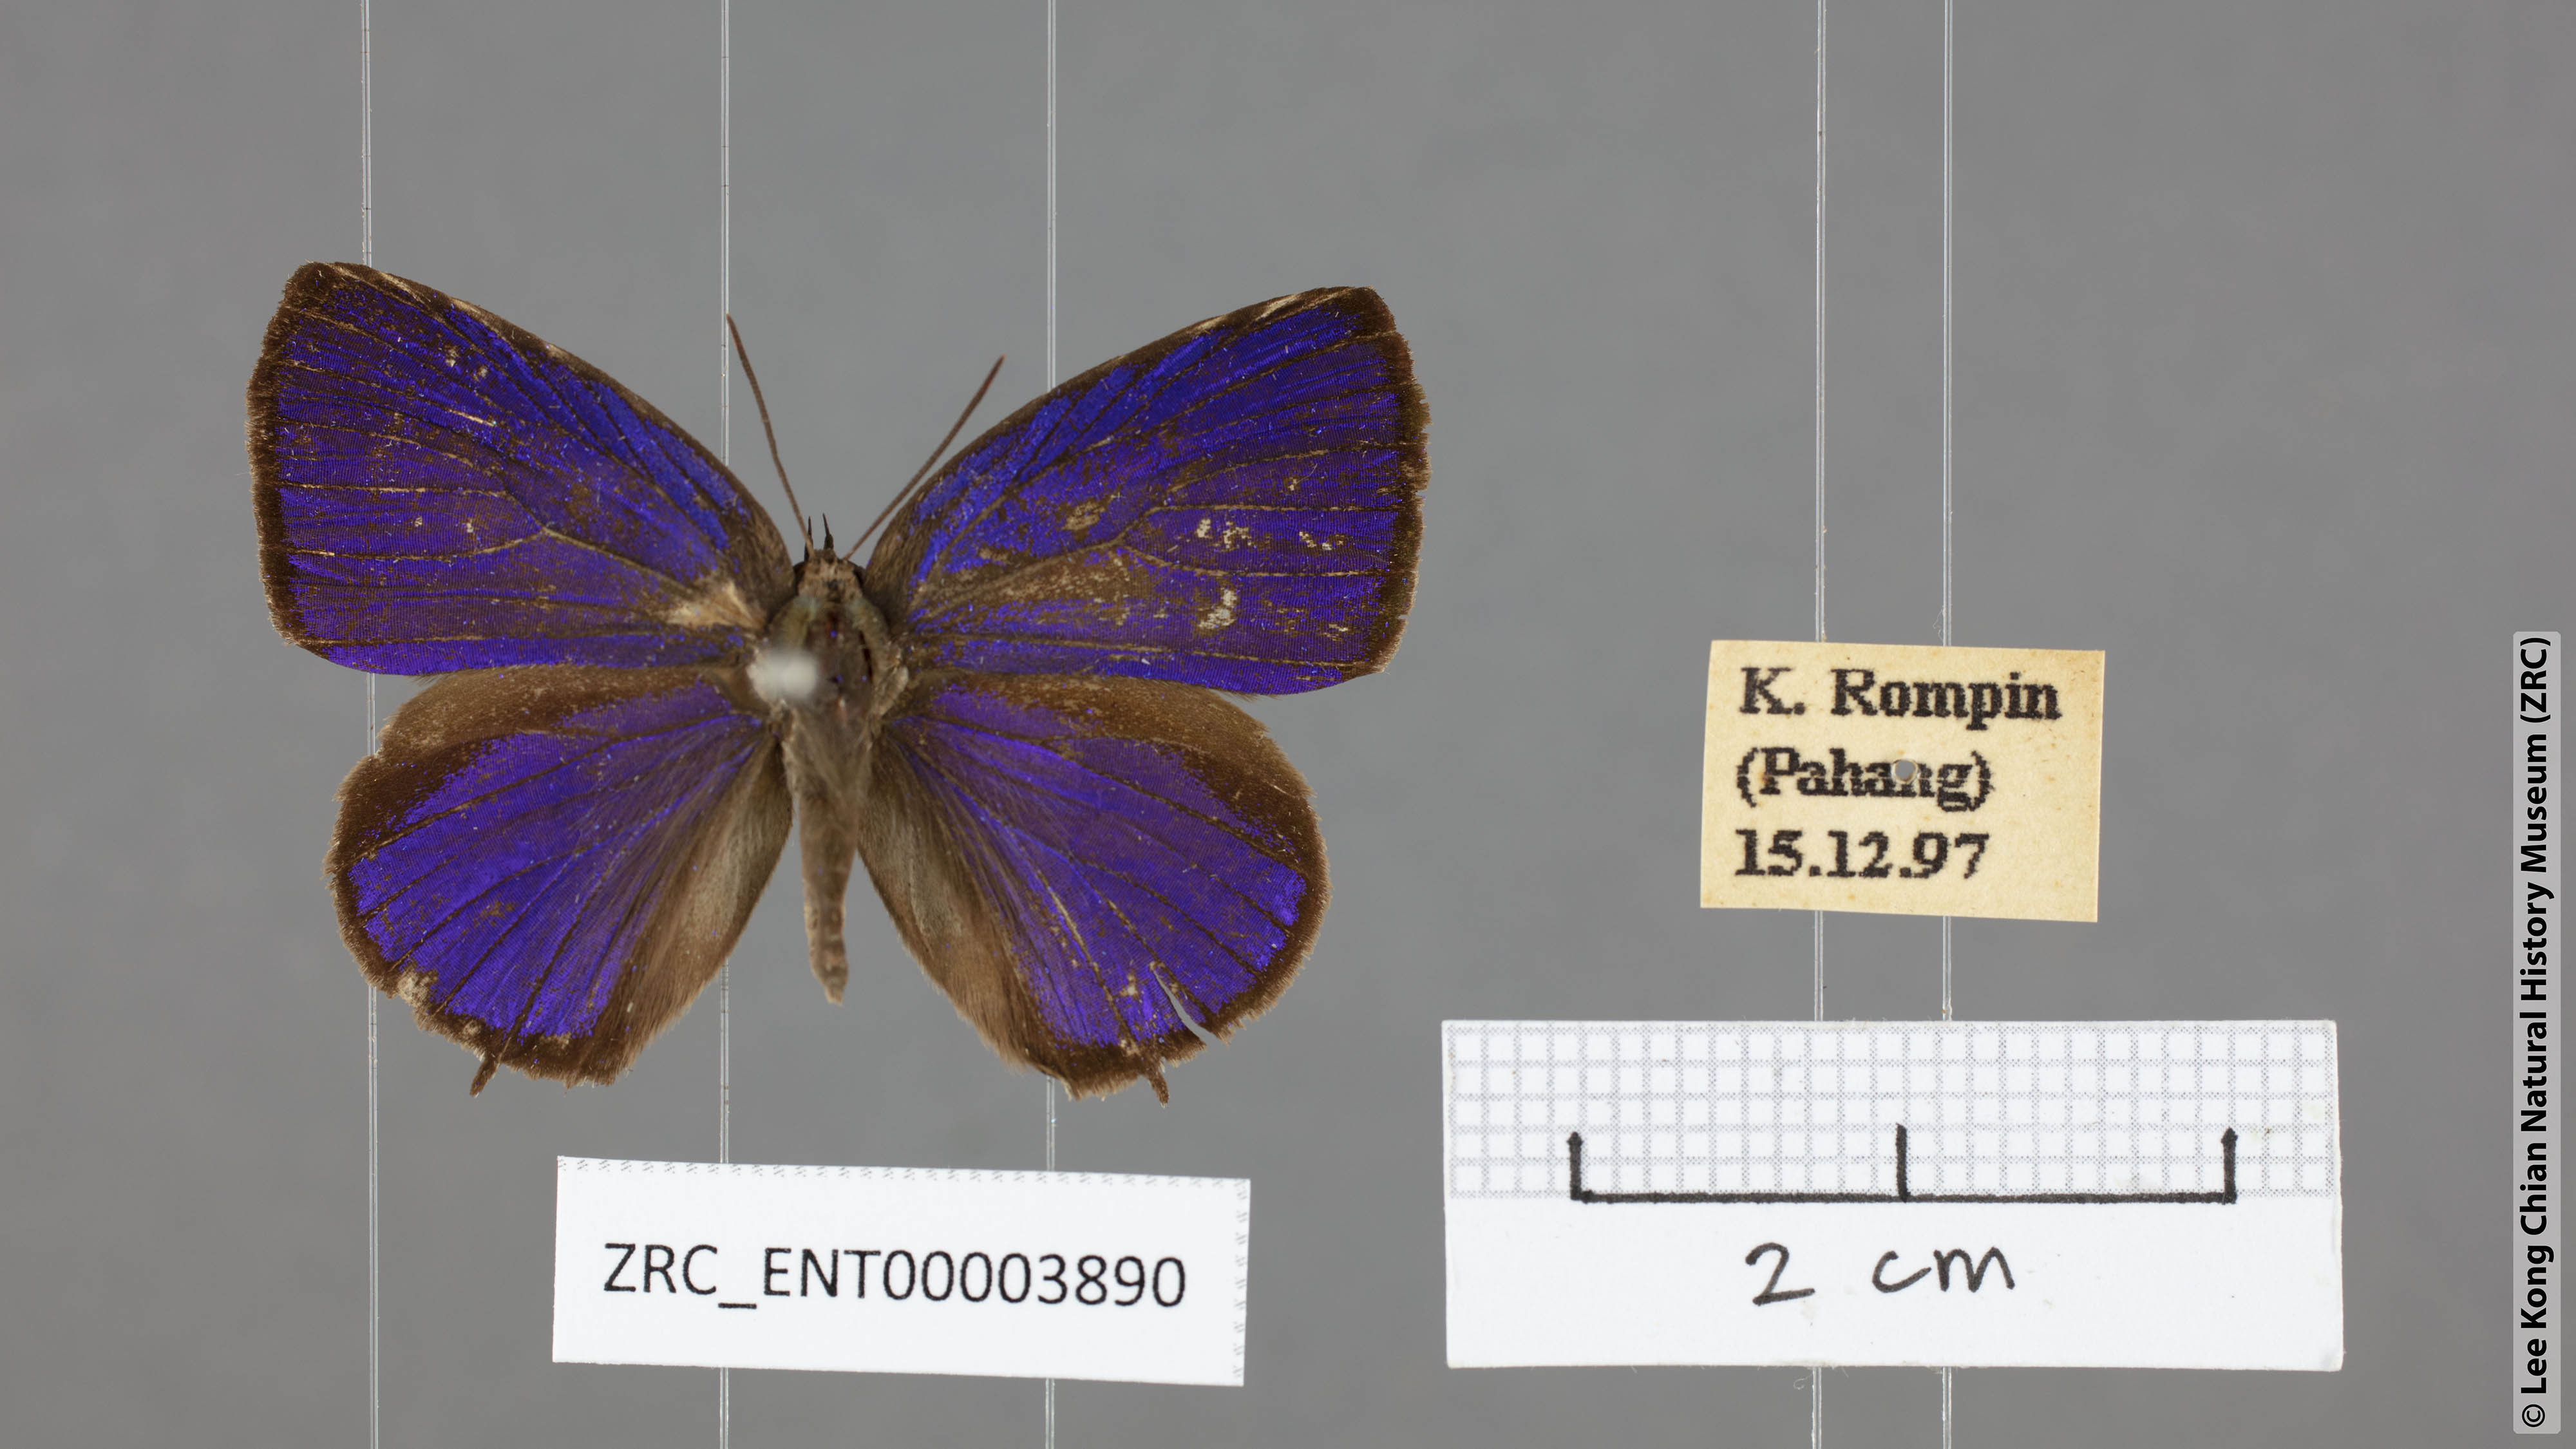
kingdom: Animalia
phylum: Arthropoda
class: Insecta
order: Lepidoptera
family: Lycaenidae
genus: Arhopala
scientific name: Arhopala buddha
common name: Buddha oakblue
